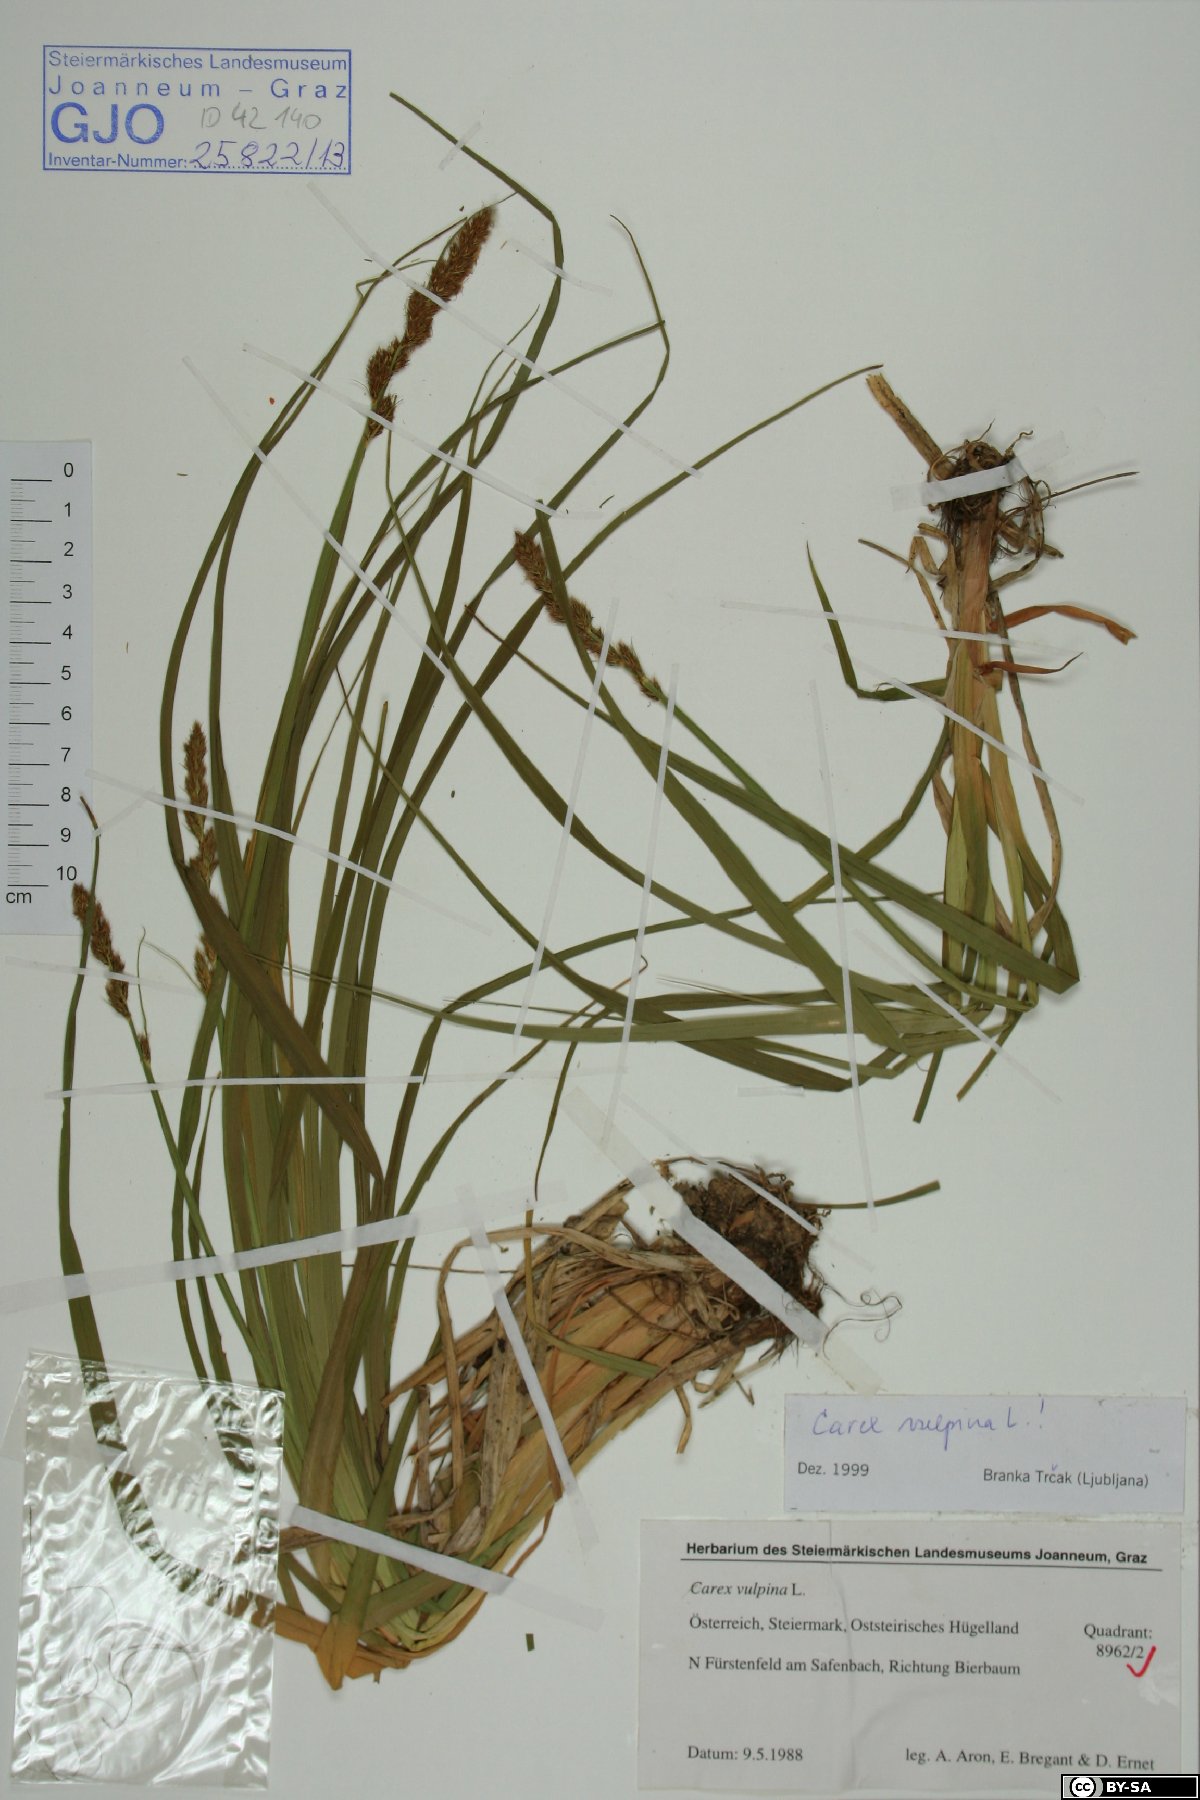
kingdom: Plantae
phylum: Tracheophyta
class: Liliopsida
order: Poales
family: Cyperaceae
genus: Carex
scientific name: Carex vulpina
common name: True fox-sedge
